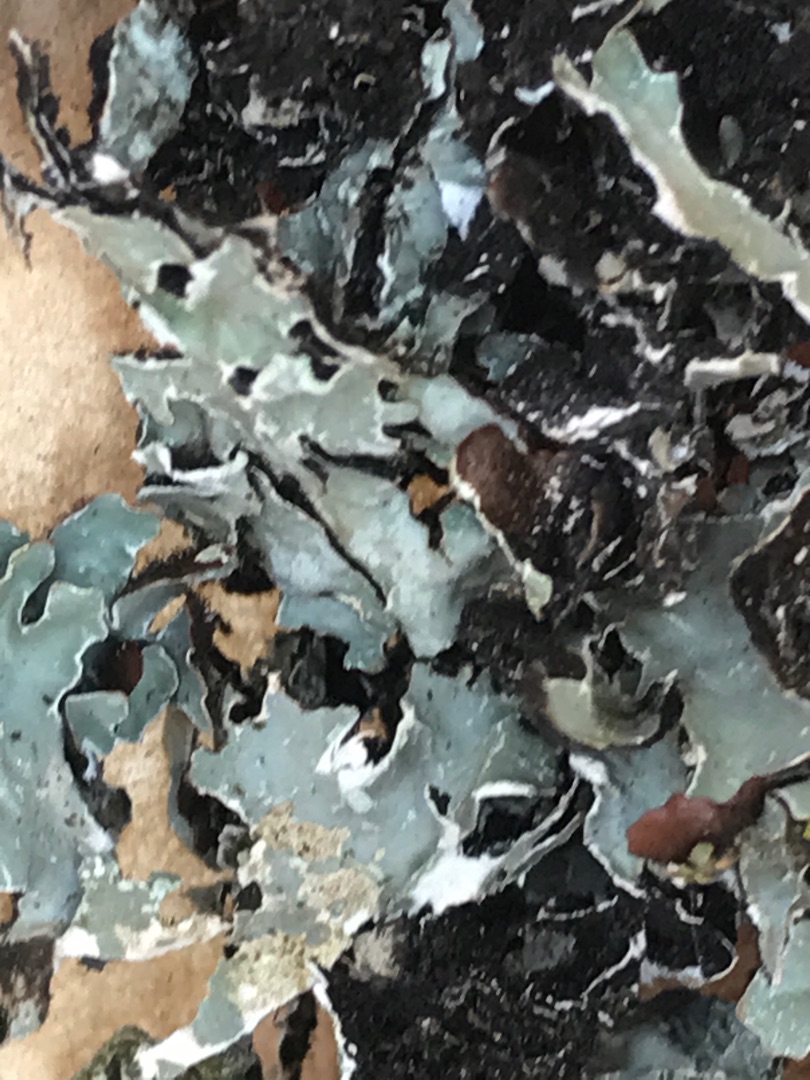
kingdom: Fungi
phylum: Ascomycota
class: Lecanoromycetes
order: Lecanorales
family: Parmeliaceae
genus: Parmelia
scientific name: Parmelia sulcata
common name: Rynket skållav
